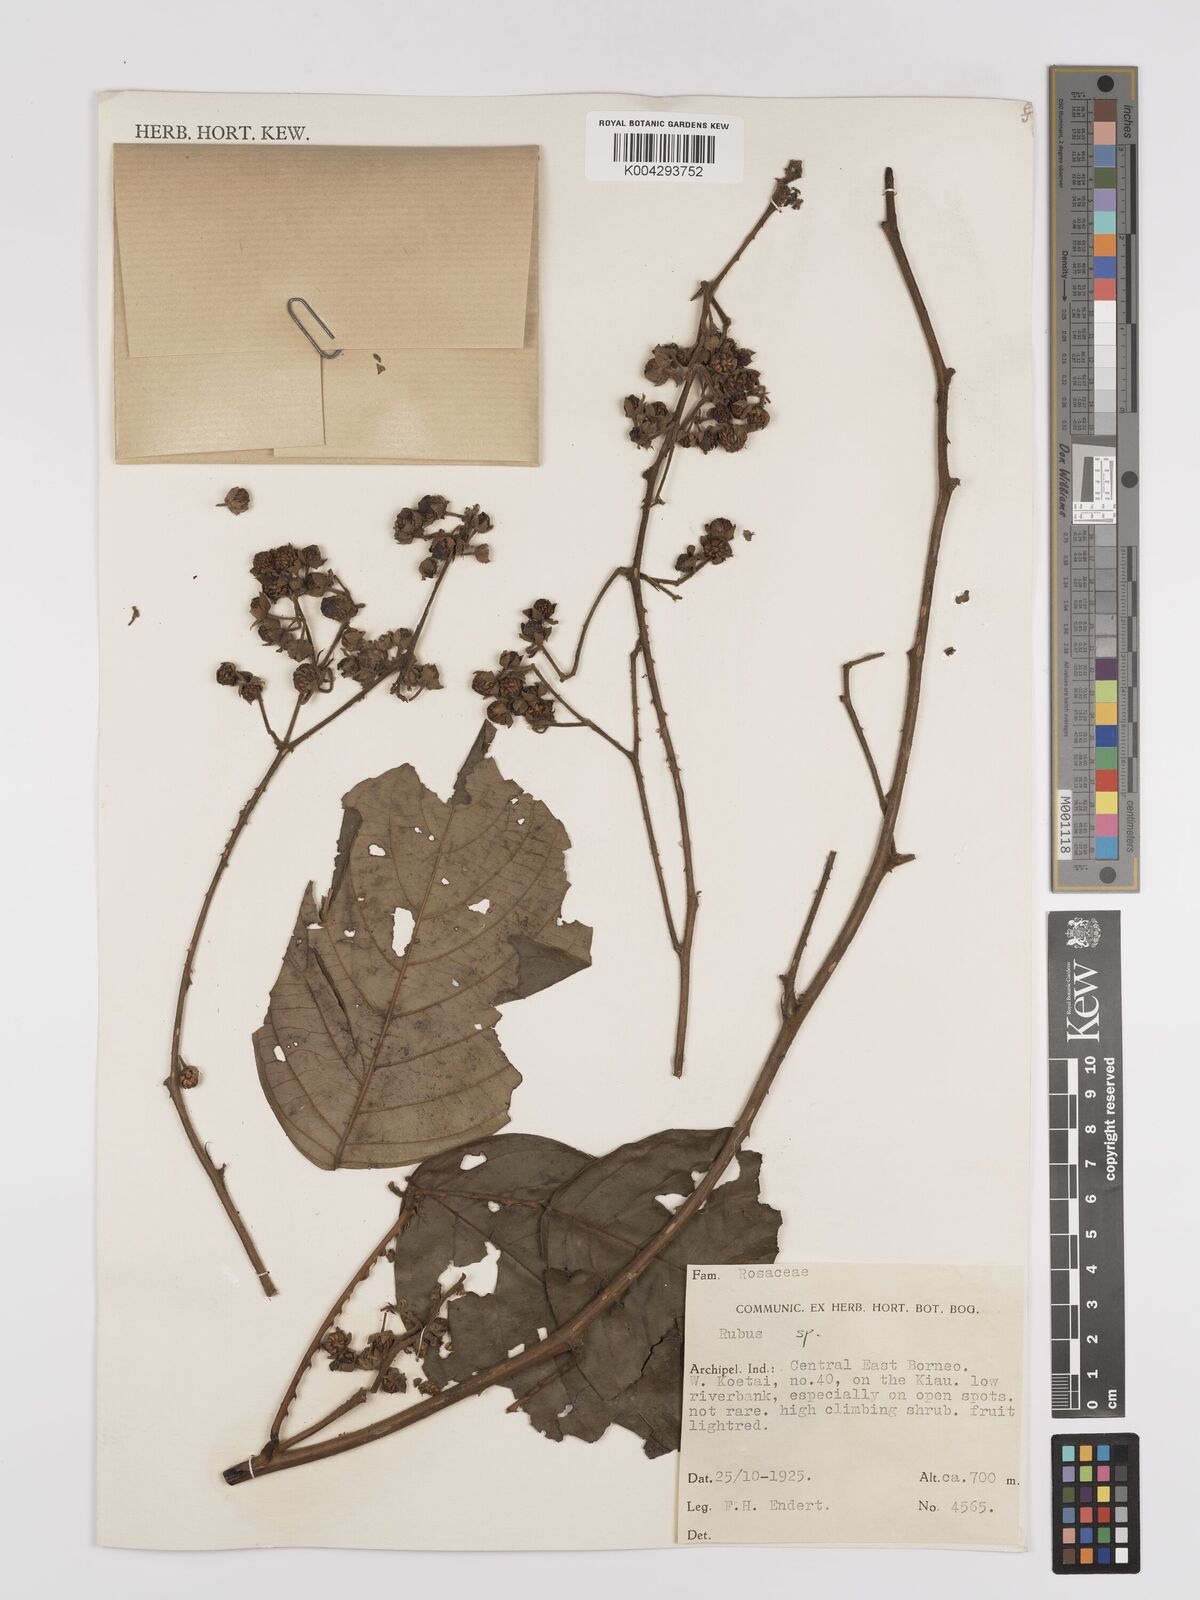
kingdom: Plantae
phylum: Tracheophyta
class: Magnoliopsida
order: Rosales
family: Rosaceae
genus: Rubus
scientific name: Rubus clementis
